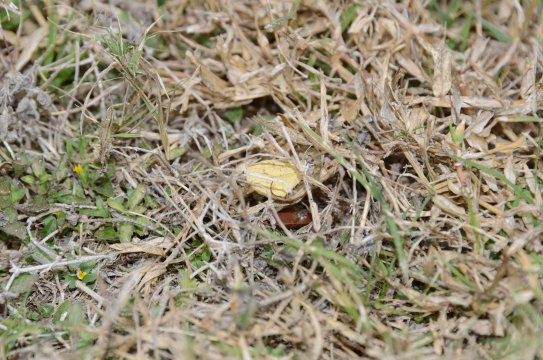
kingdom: Animalia
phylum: Arthropoda
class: Insecta
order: Lepidoptera
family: Pieridae
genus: Eurema
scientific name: Eurema daira
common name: Barred Yellow
